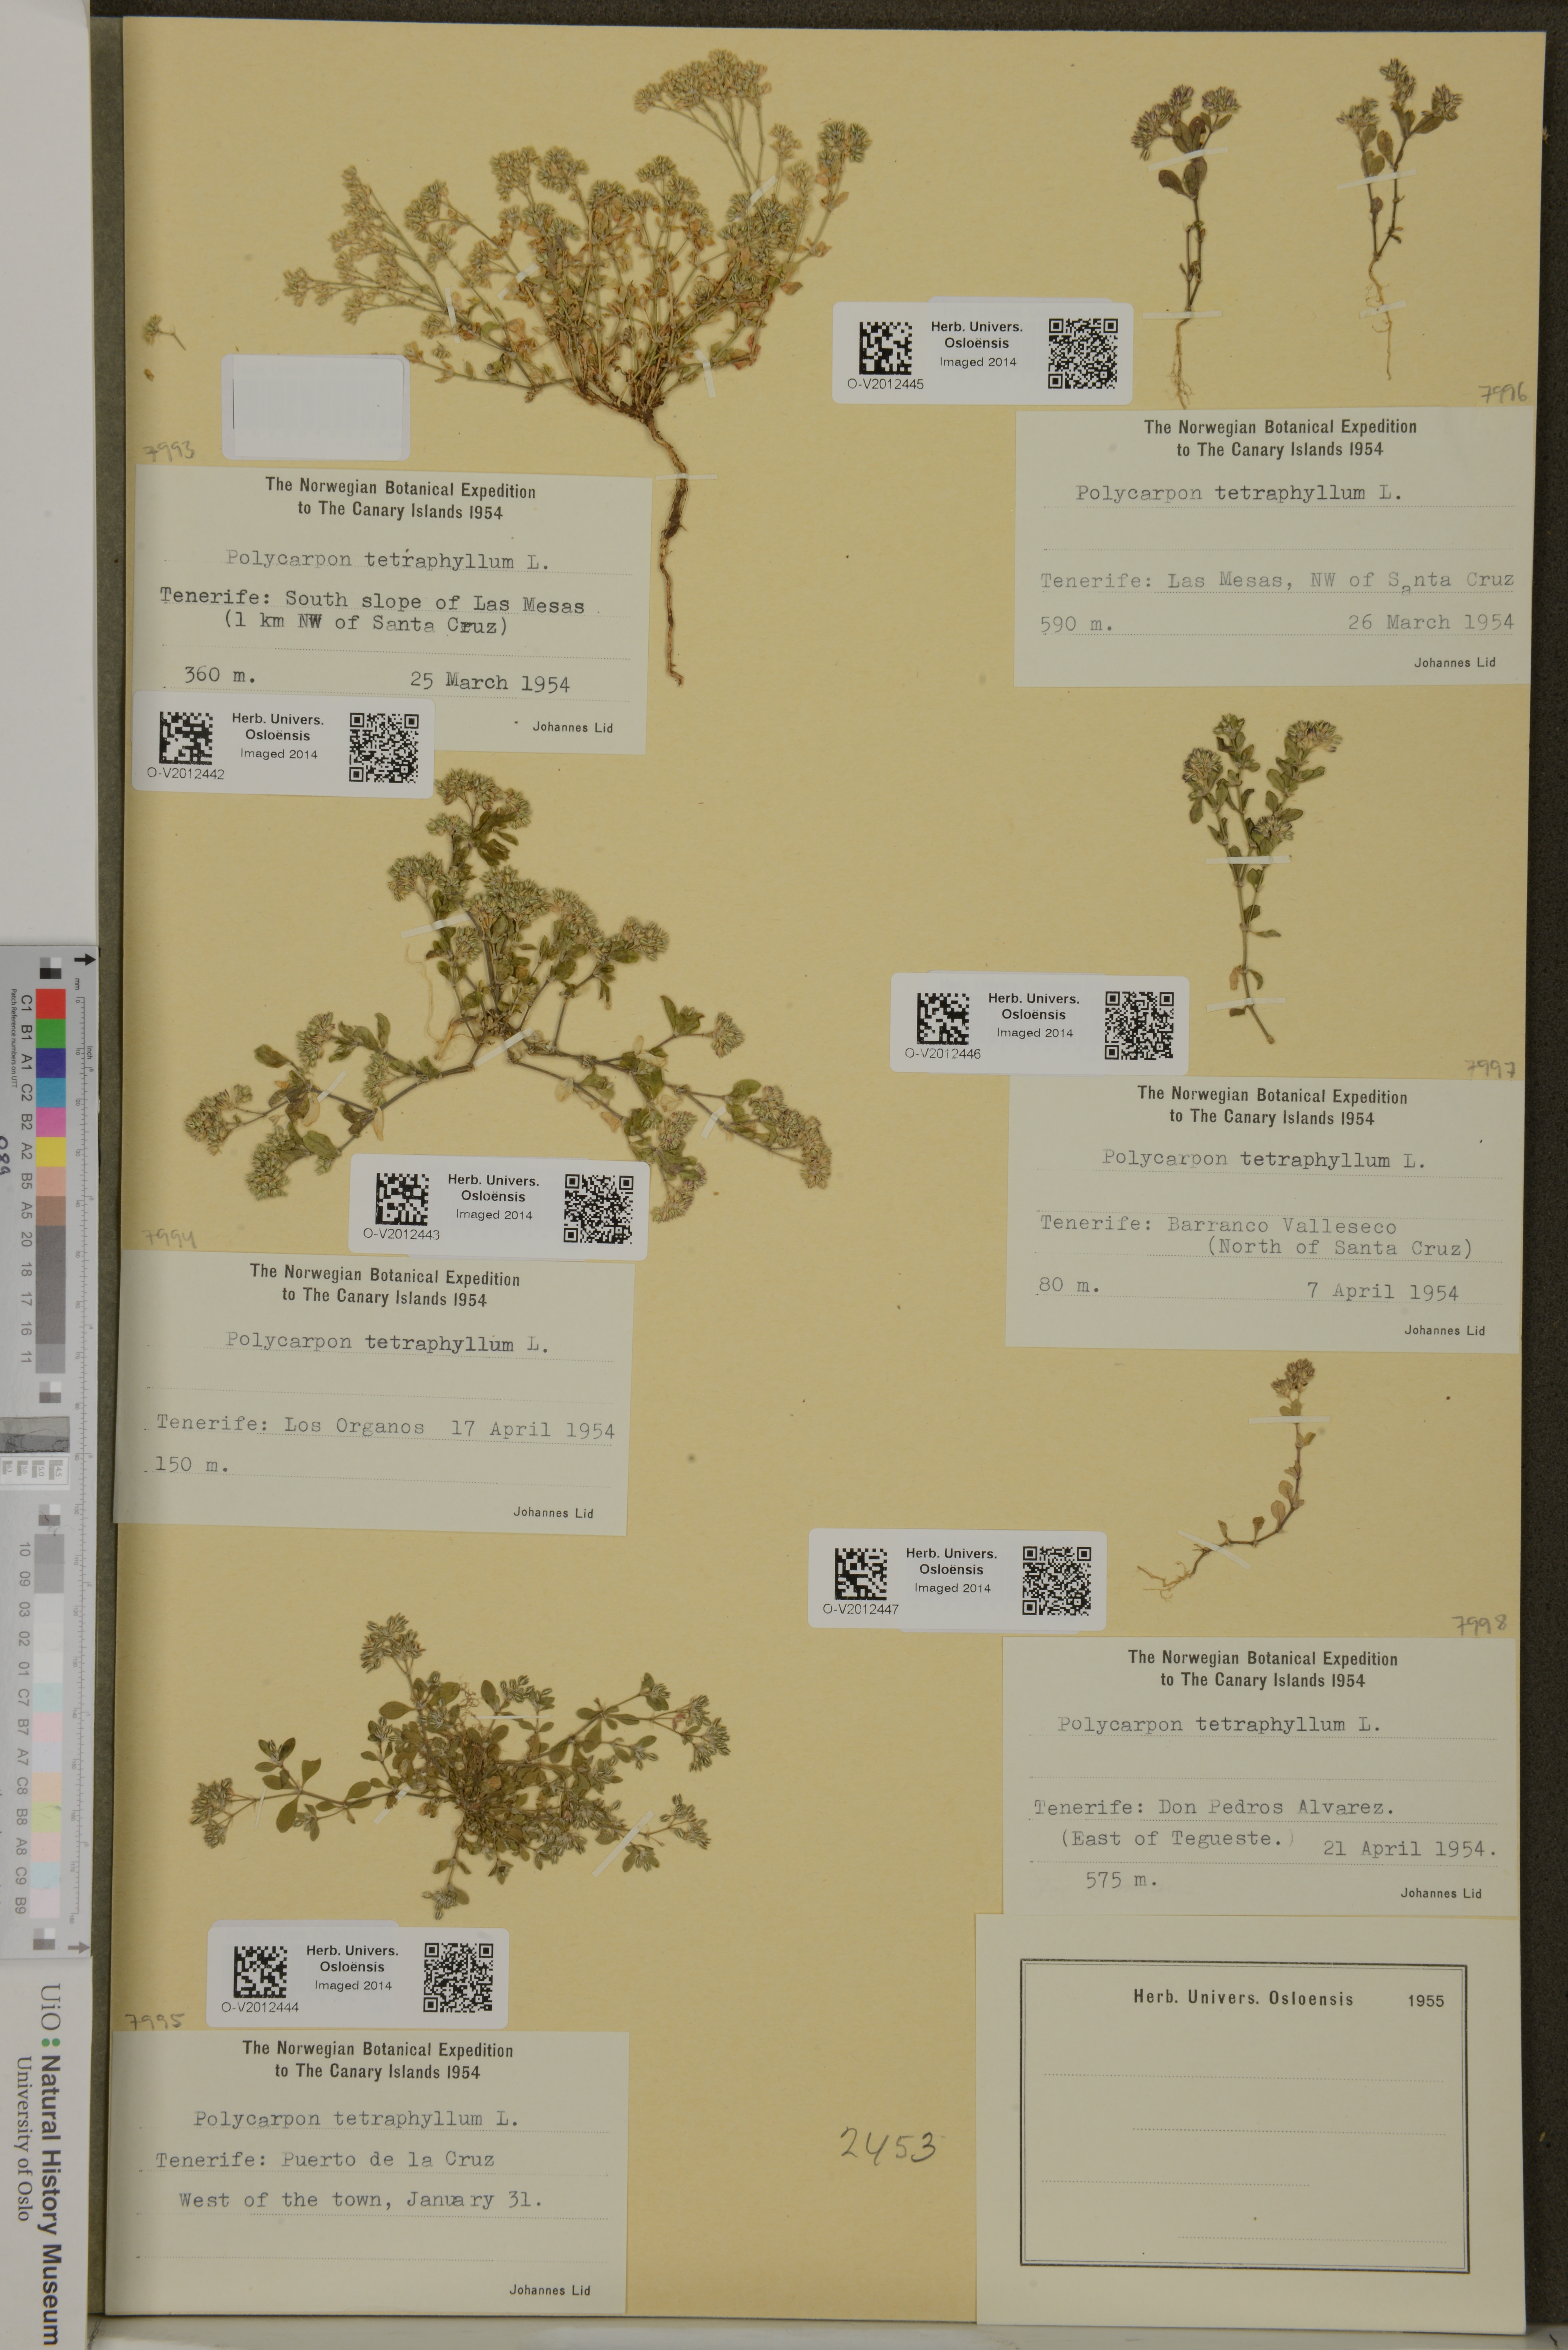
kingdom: Plantae
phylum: Tracheophyta
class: Magnoliopsida
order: Caryophyllales
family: Caryophyllaceae
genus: Polycarpon
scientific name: Polycarpon tetraphyllum
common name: Four-leaved all-seed
